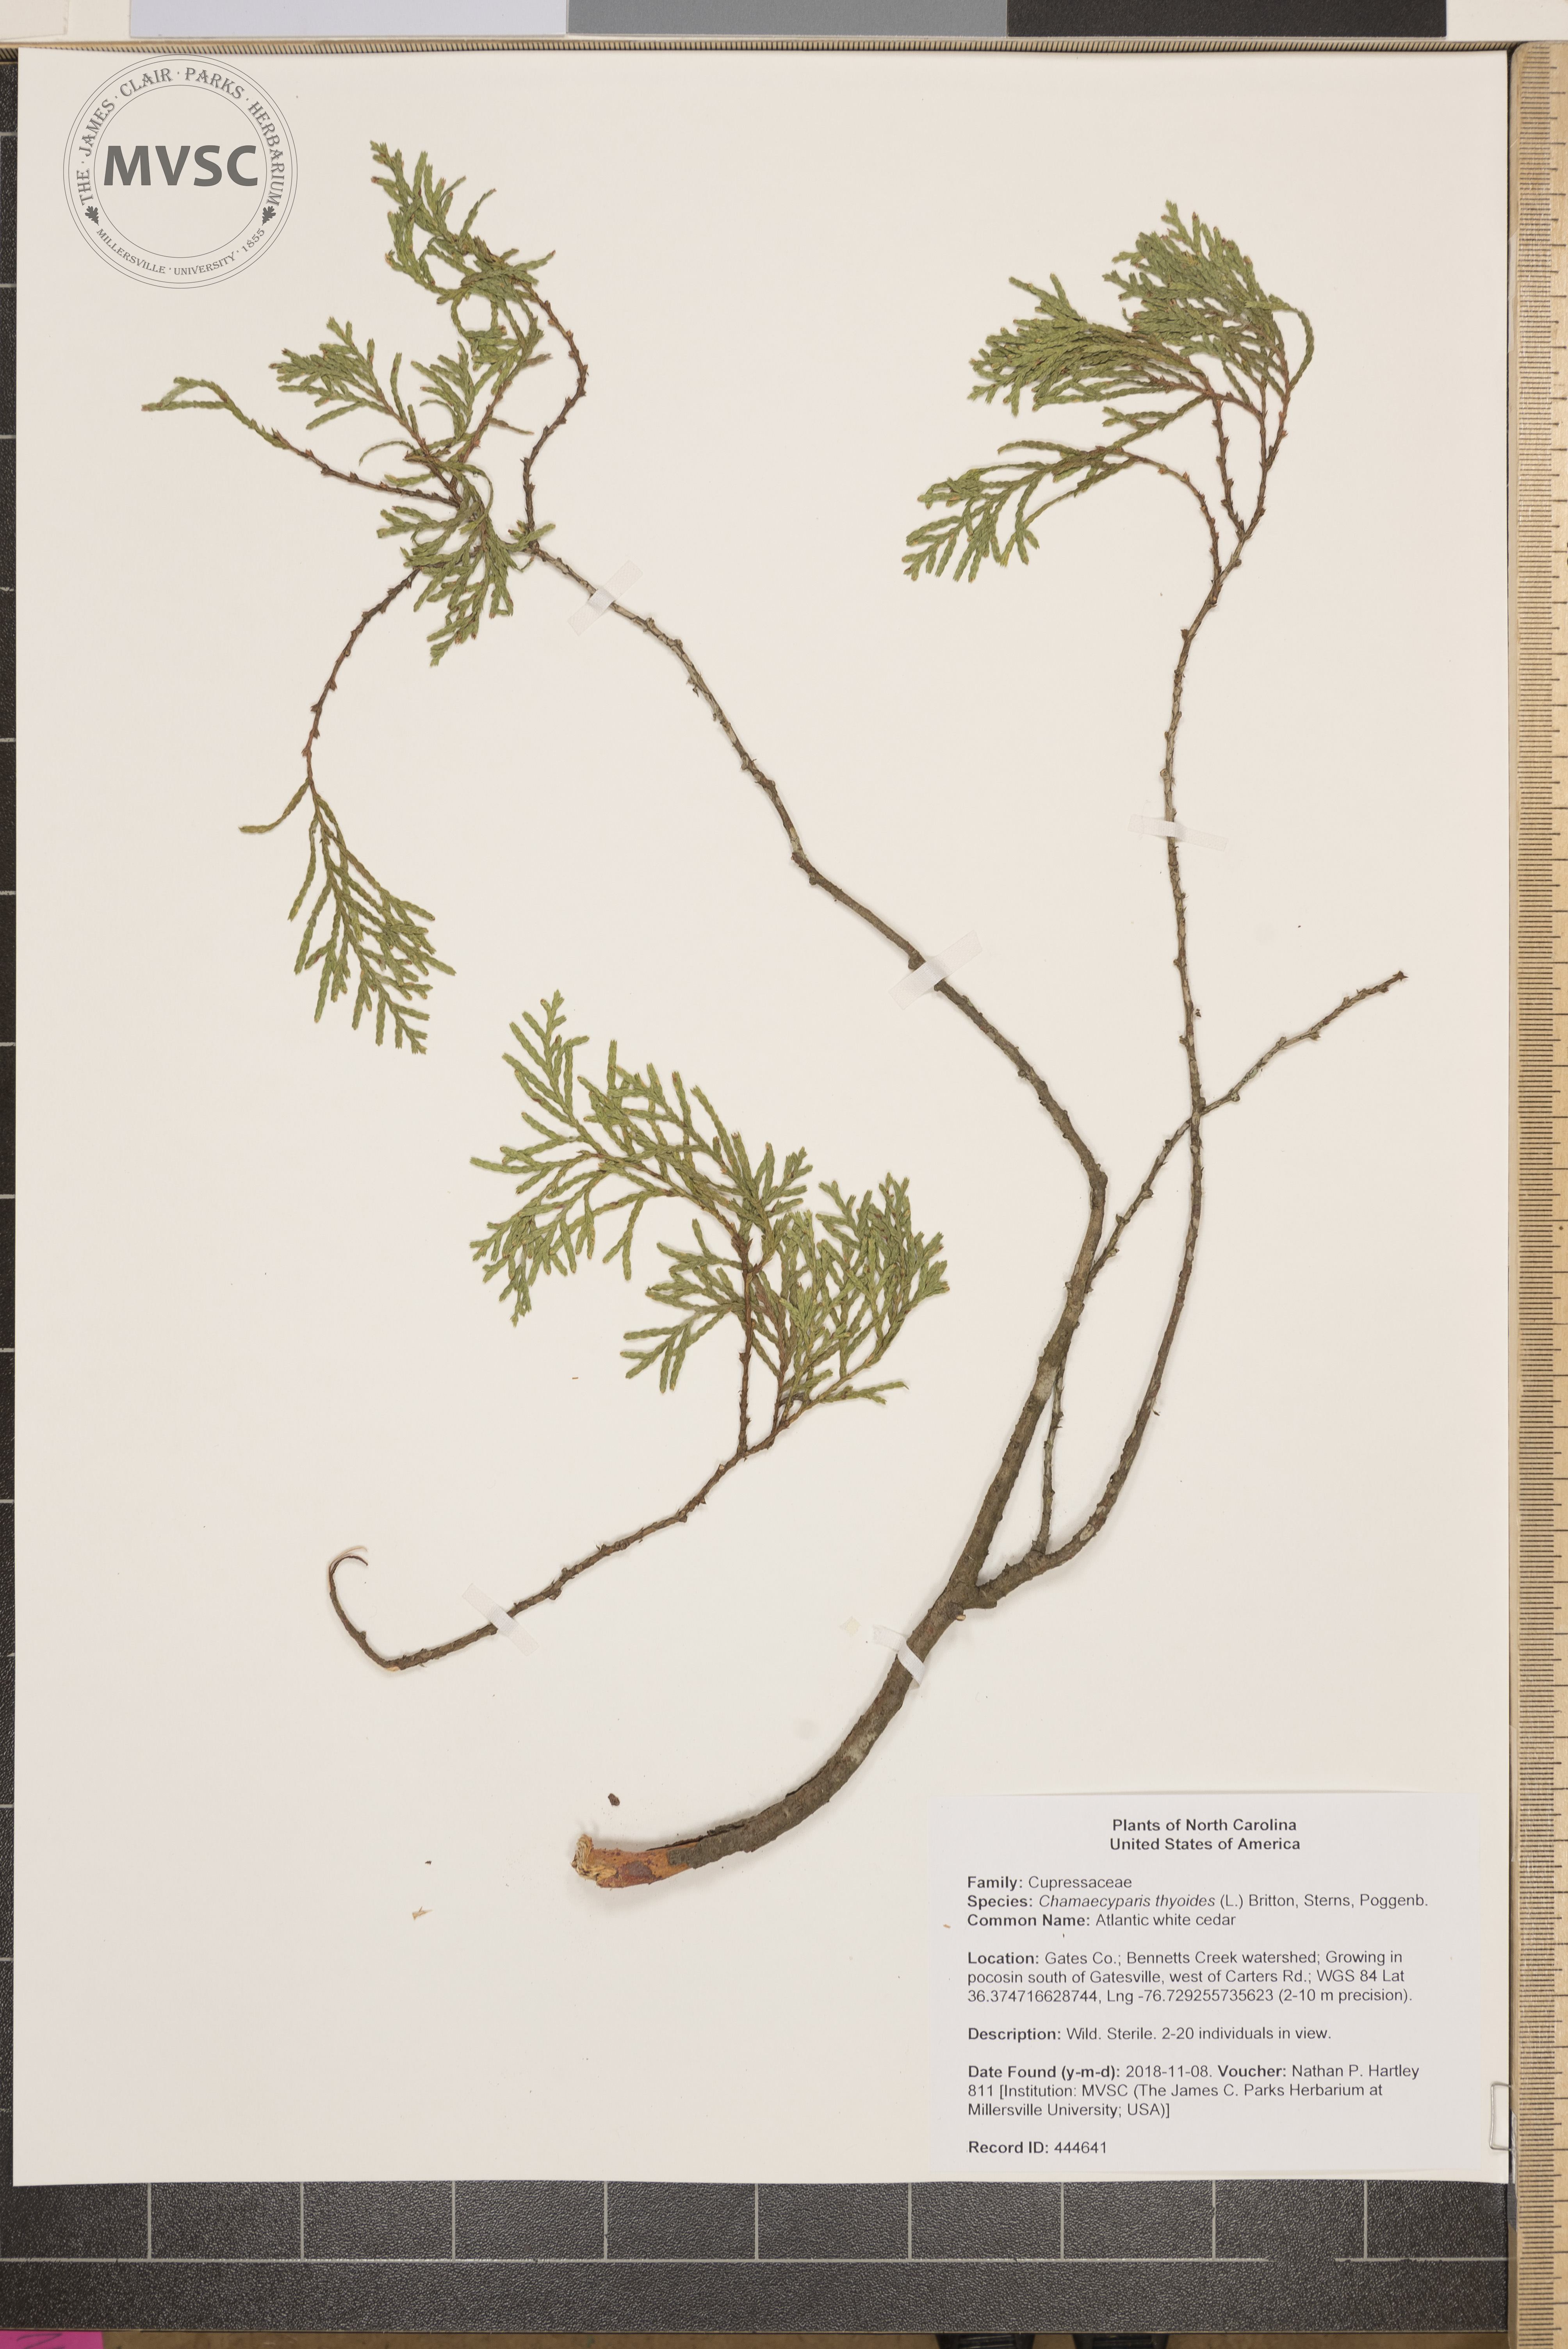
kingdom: Plantae
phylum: Tracheophyta
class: Pinopsida
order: Pinales
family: Cupressaceae
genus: Chamaecyparis
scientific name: Chamaecyparis thyoides
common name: Atlantic white cedar
